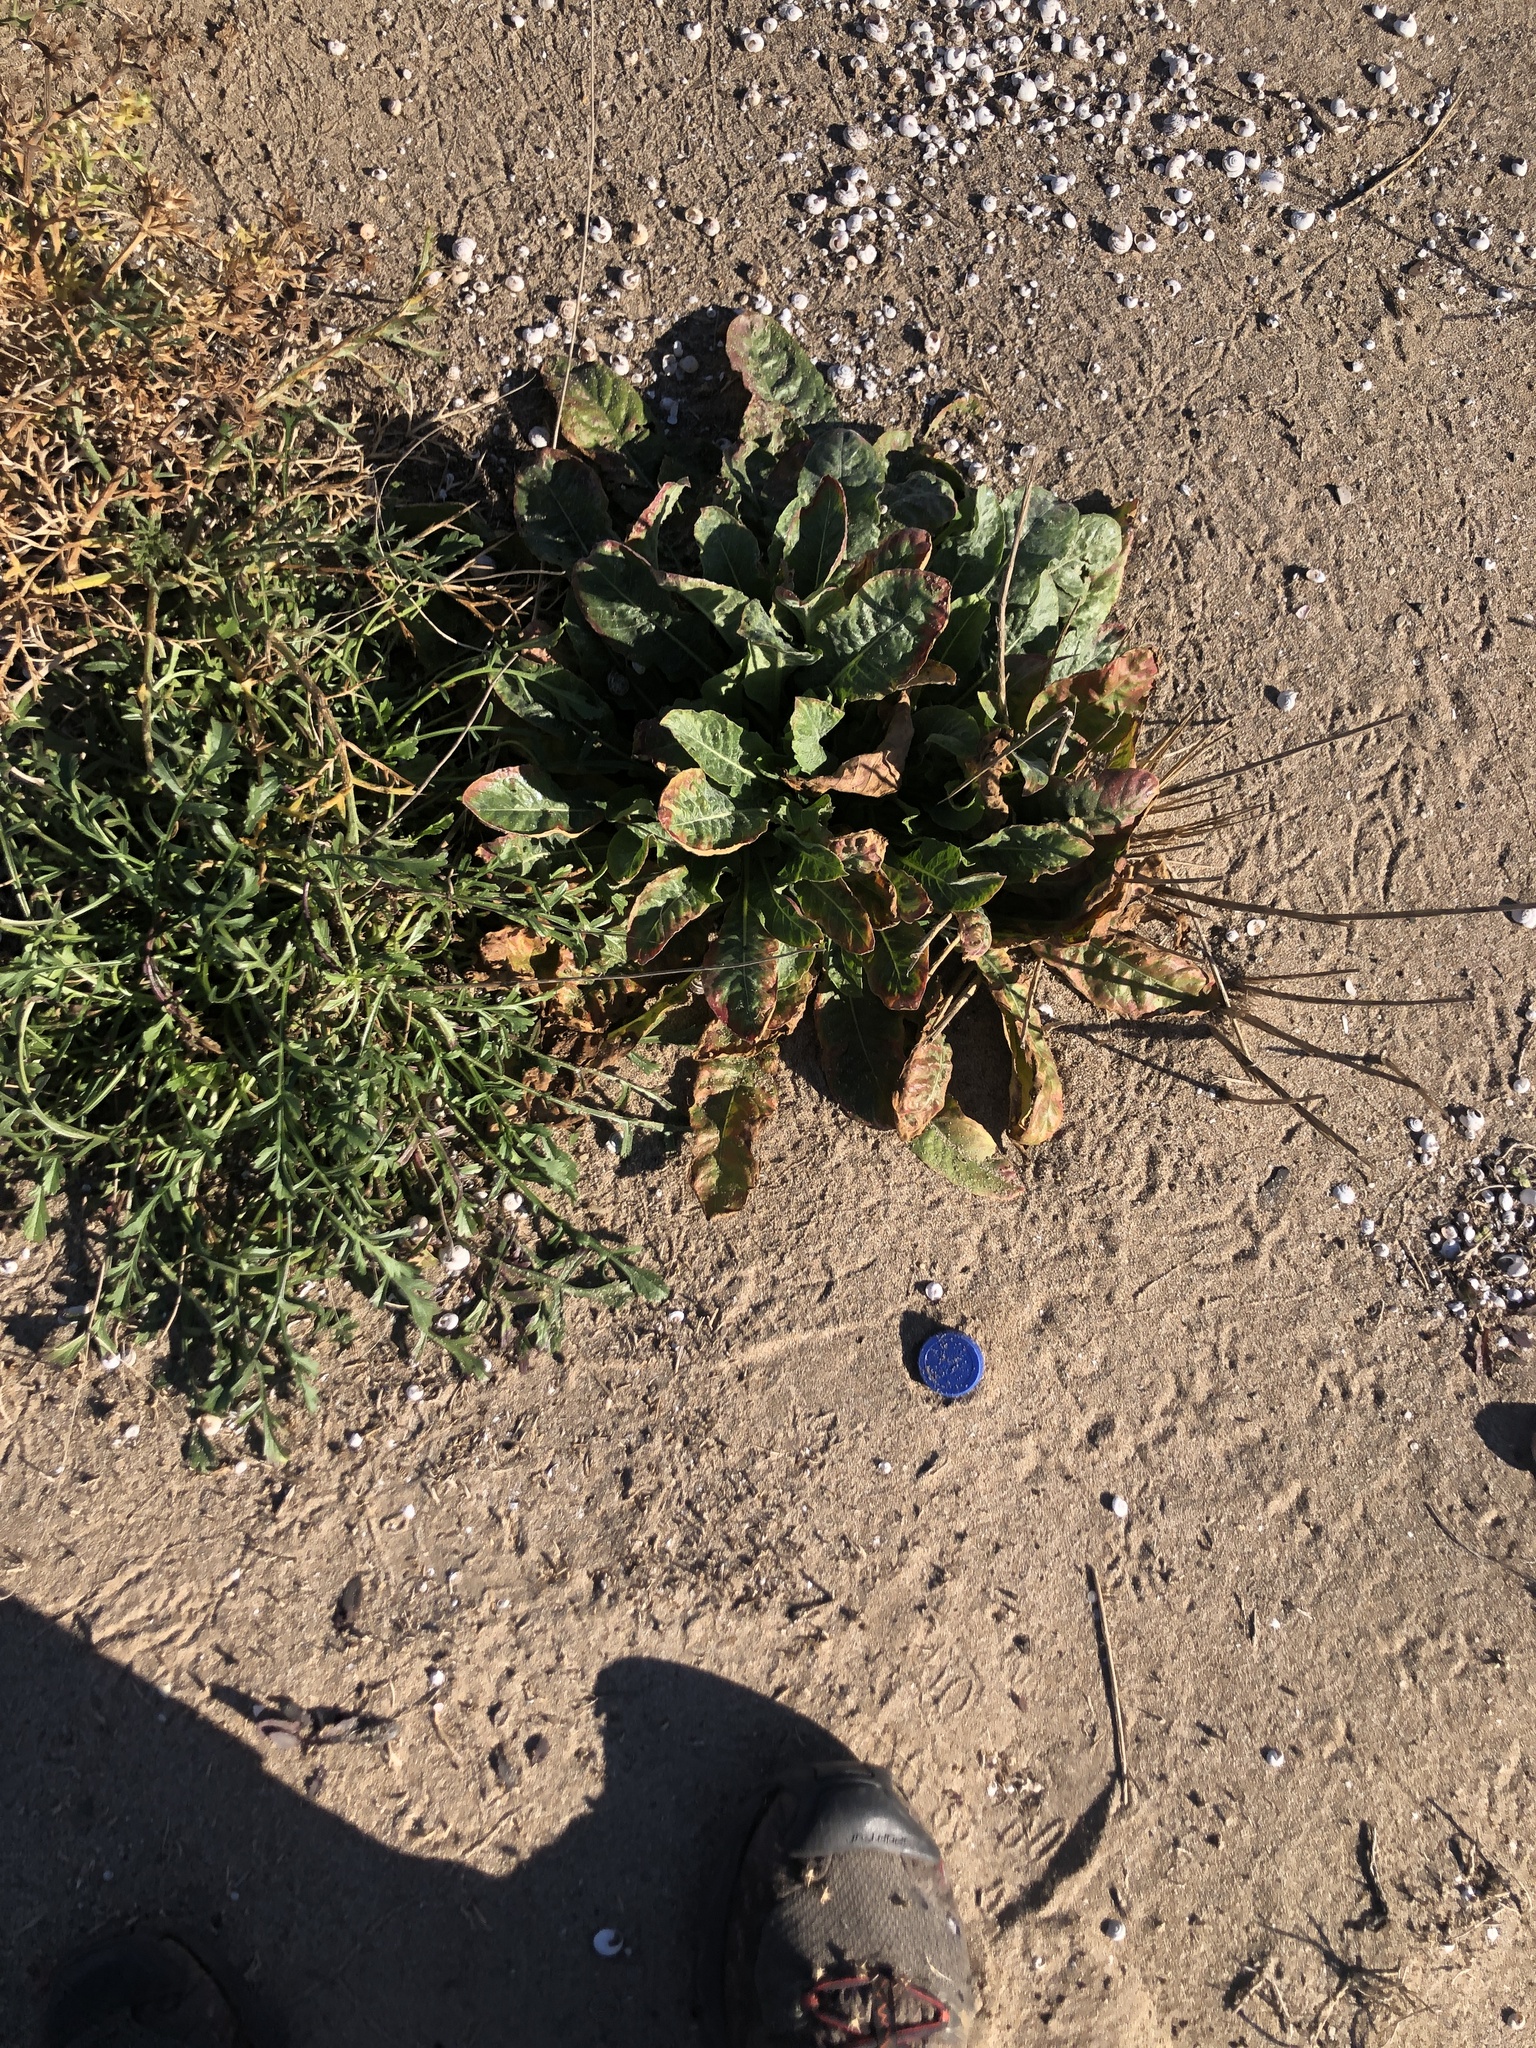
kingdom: Plantae
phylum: Tracheophyta
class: Magnoliopsida
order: Myrtales
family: Onagraceae
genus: Oenothera
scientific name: Oenothera glazioviana
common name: Large-flowered evening-primrose
